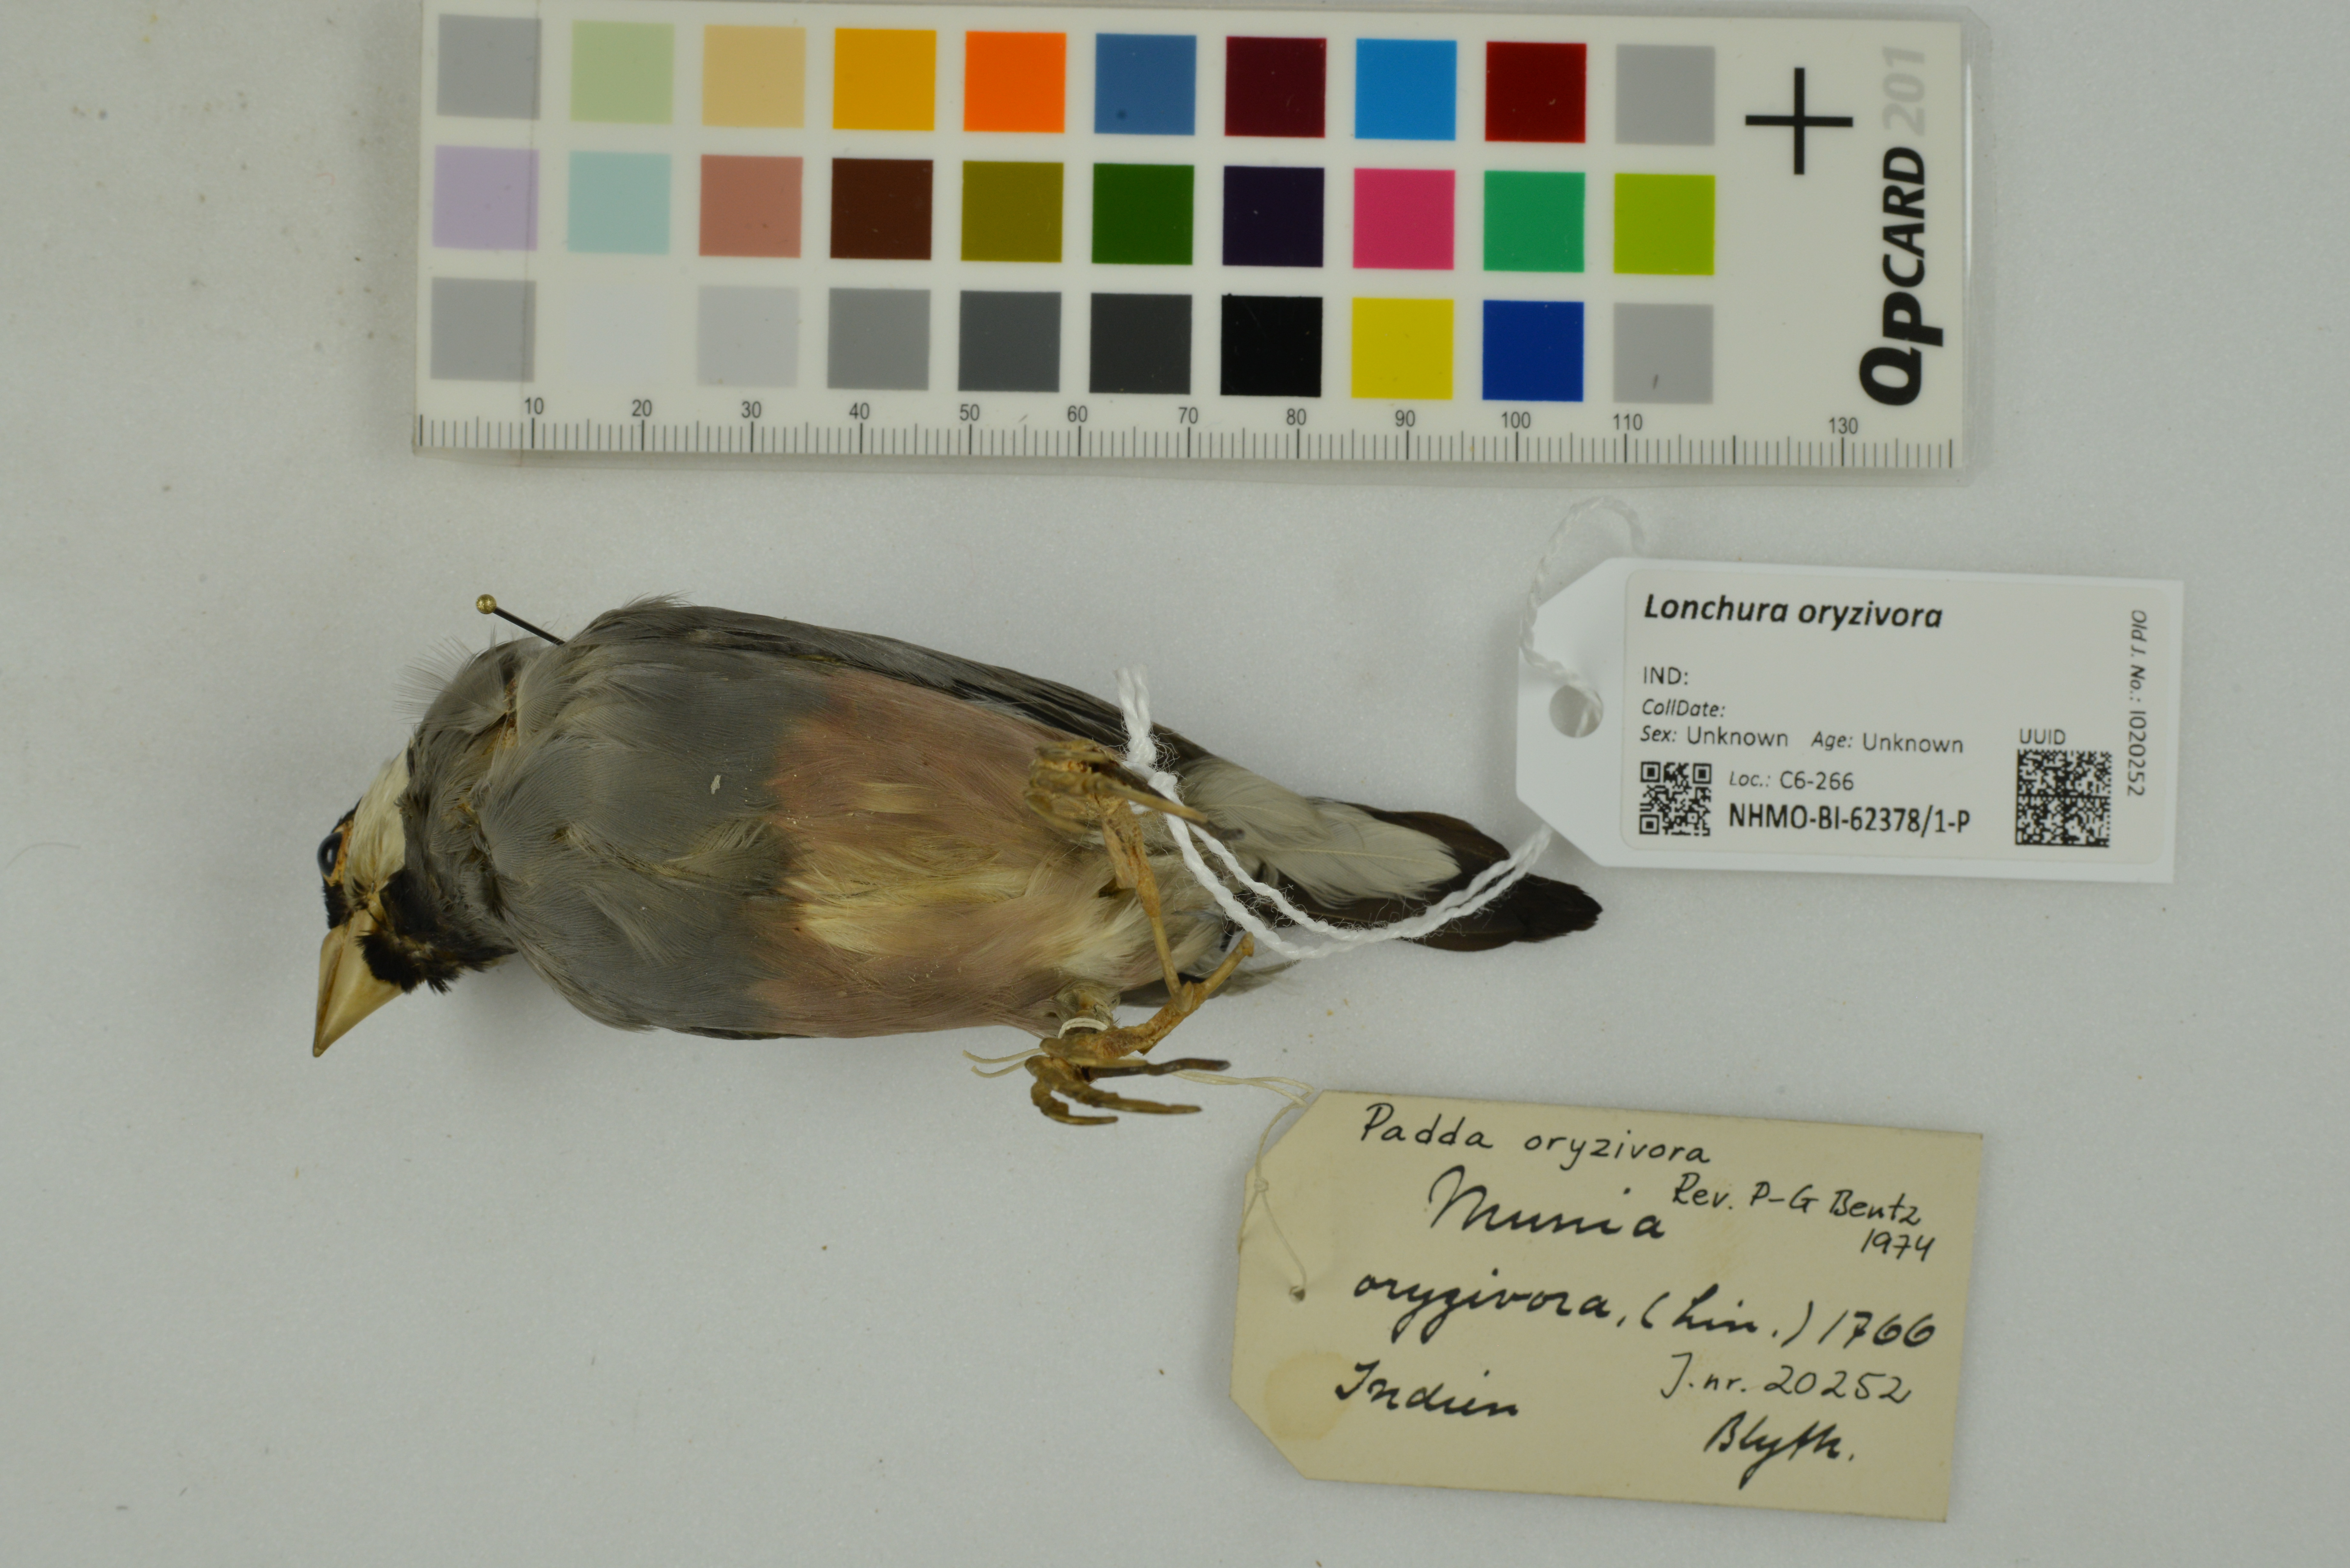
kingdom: Animalia
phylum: Chordata
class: Aves
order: Passeriformes
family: Estrildidae
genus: Lonchura
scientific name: Lonchura oryzivora
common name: Java sparrow
